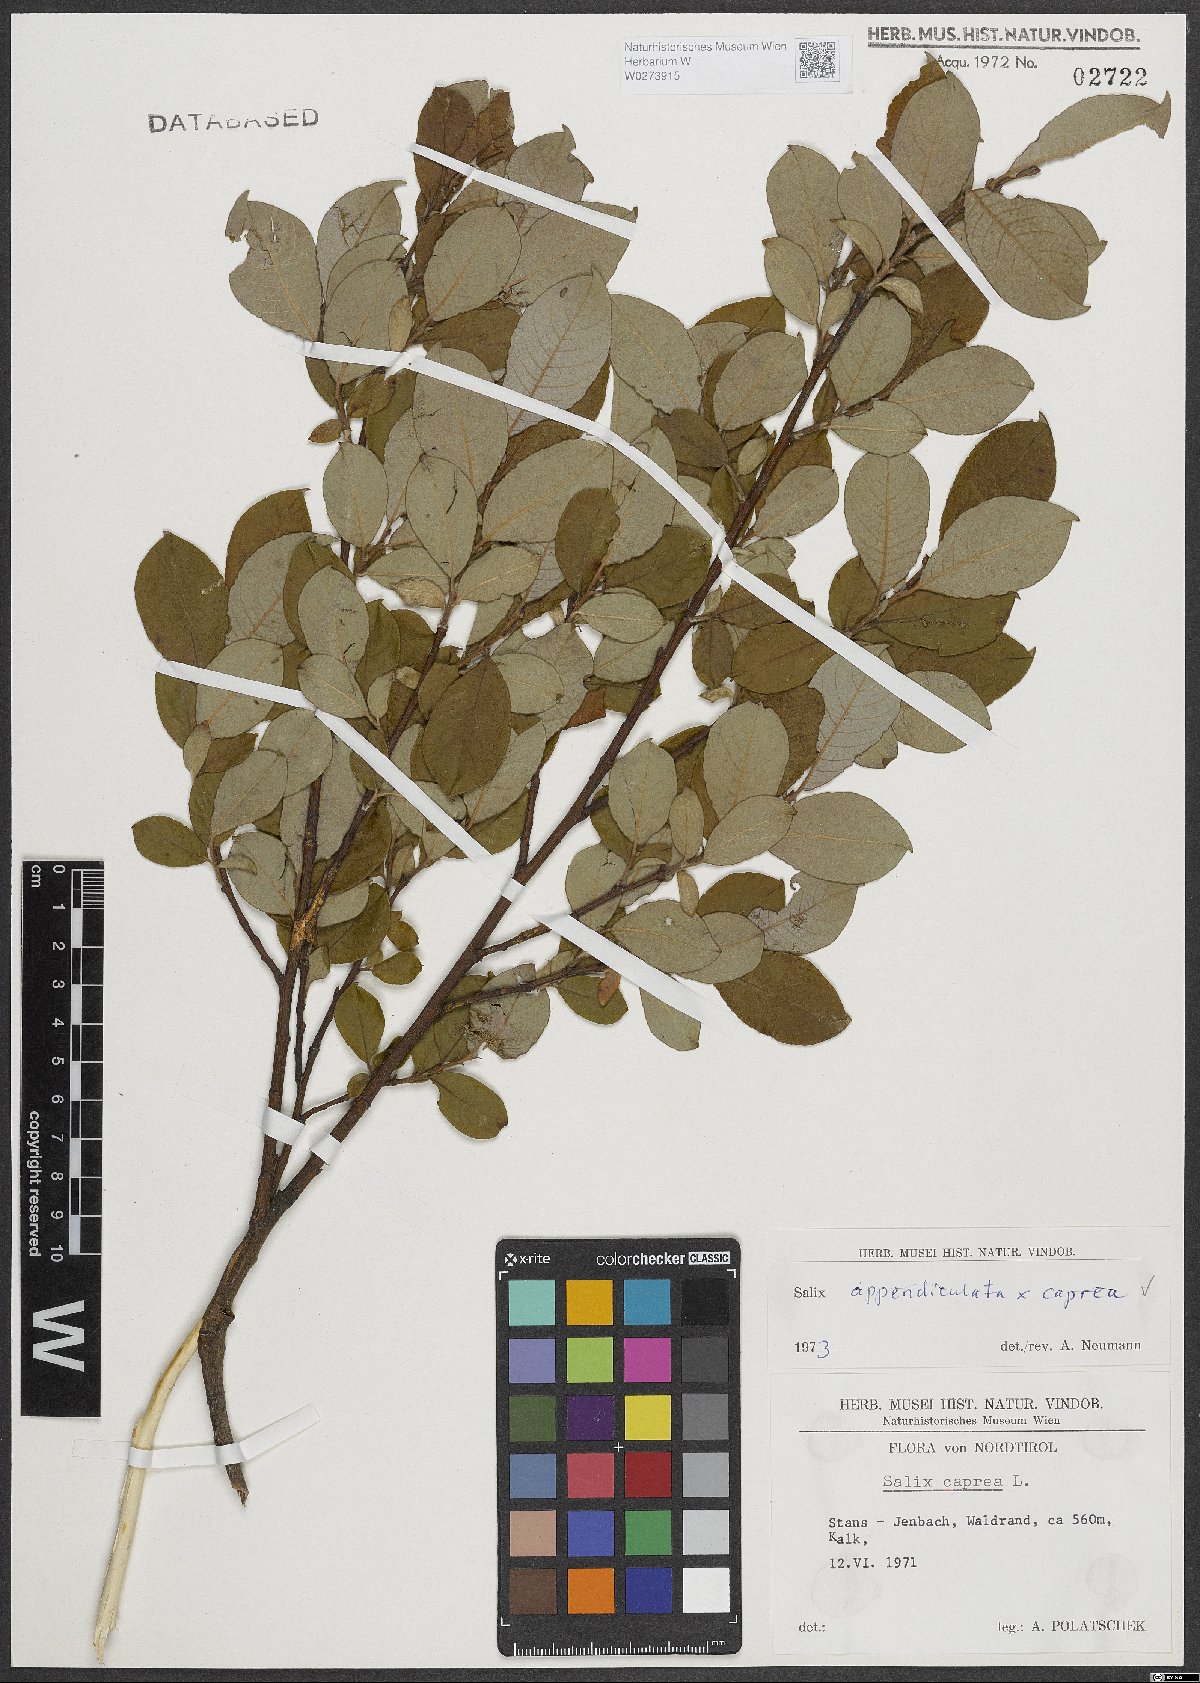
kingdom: Plantae
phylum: Tracheophyta
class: Magnoliopsida
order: Malpighiales
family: Salicaceae
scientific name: Salicaceae
